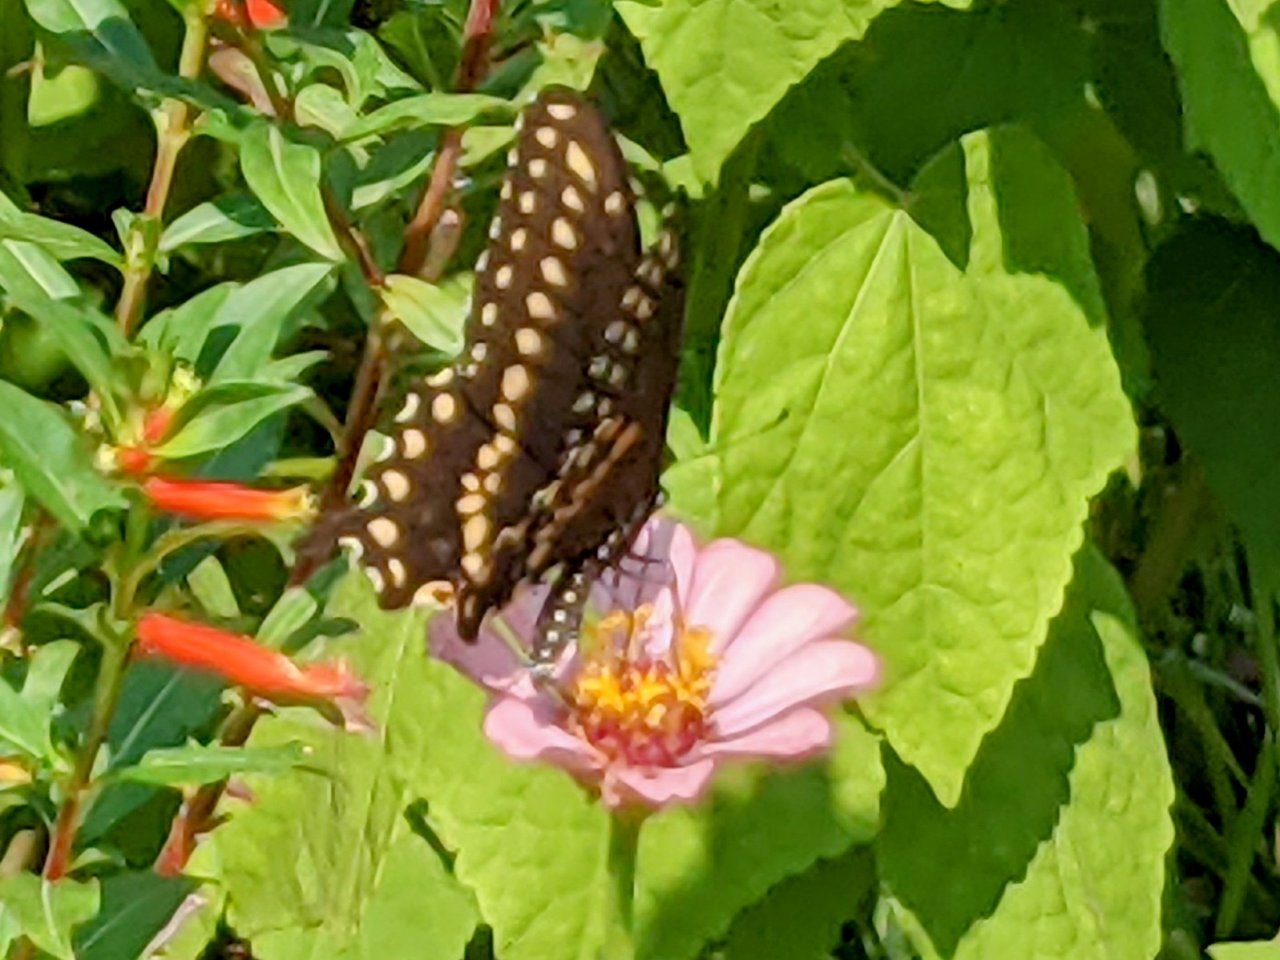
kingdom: Animalia
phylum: Arthropoda
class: Insecta
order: Lepidoptera
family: Papilionidae
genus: Papilio
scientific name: Papilio polyxenes
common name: Black Swallowtail
